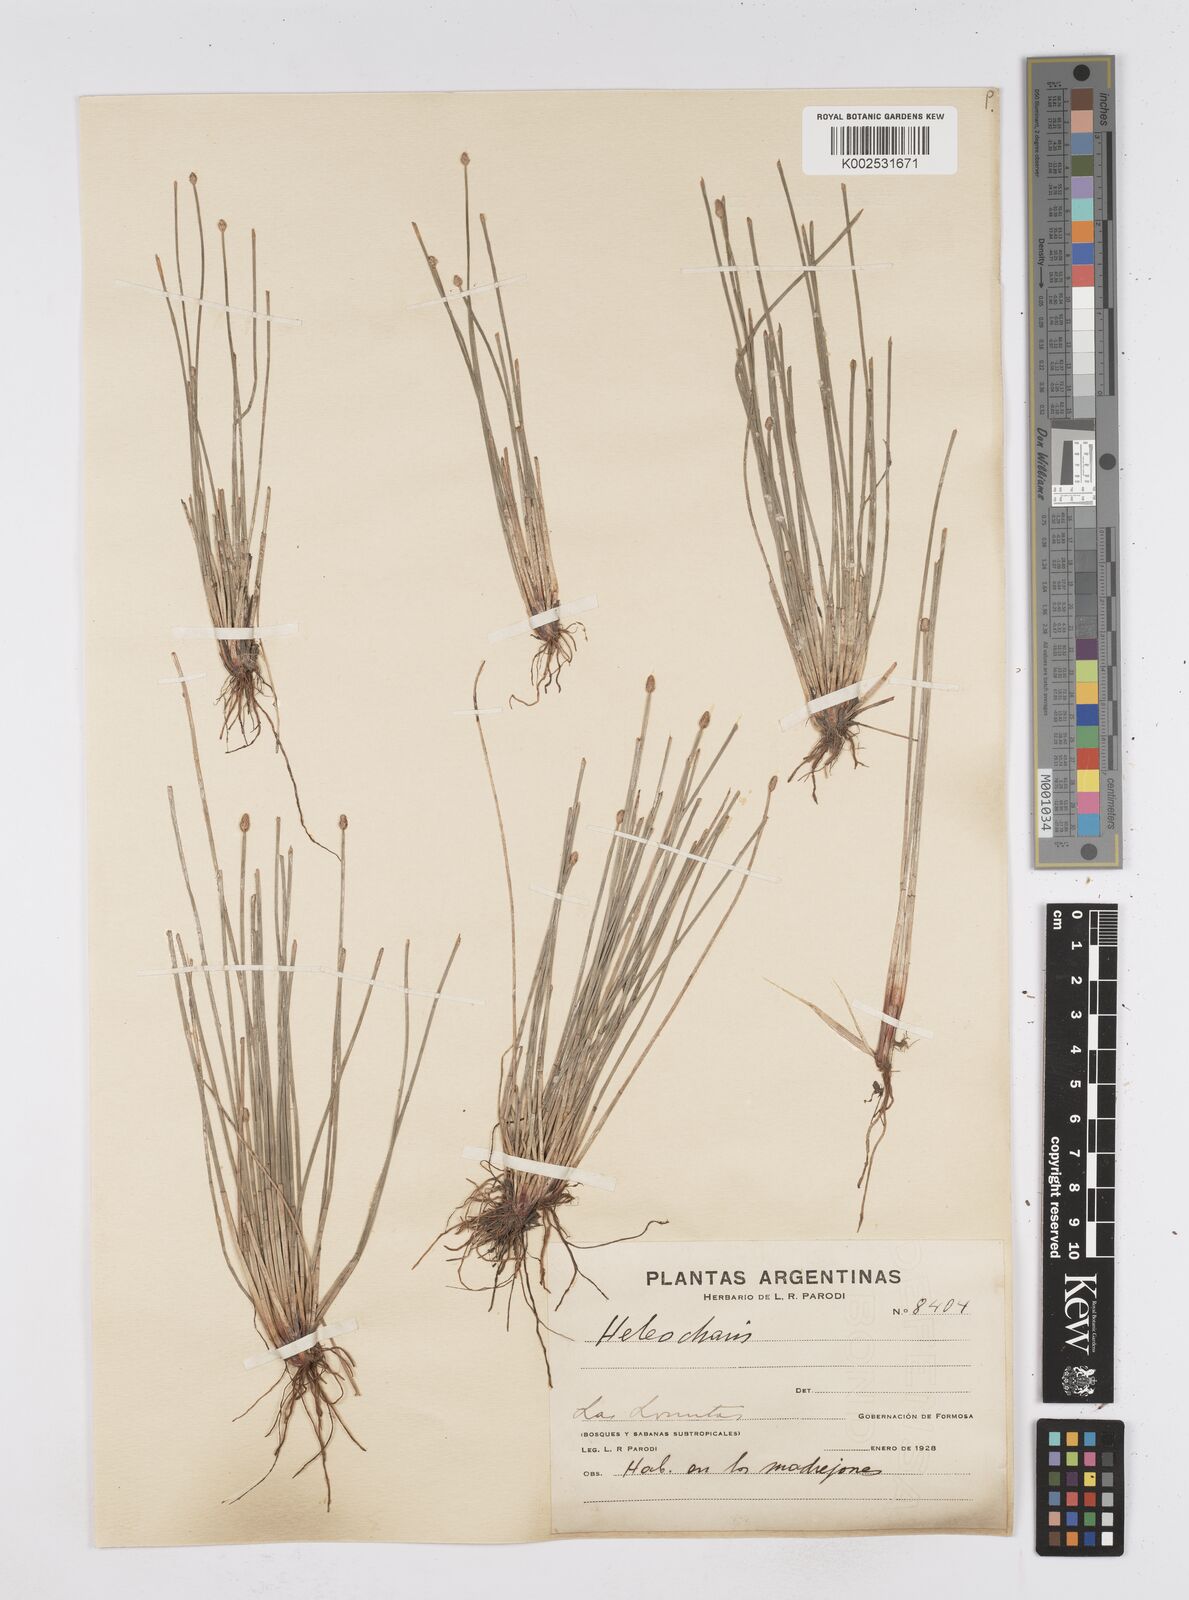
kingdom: Plantae
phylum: Tracheophyta
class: Liliopsida
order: Poales
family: Cyperaceae
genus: Eleocharis
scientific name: Eleocharis
